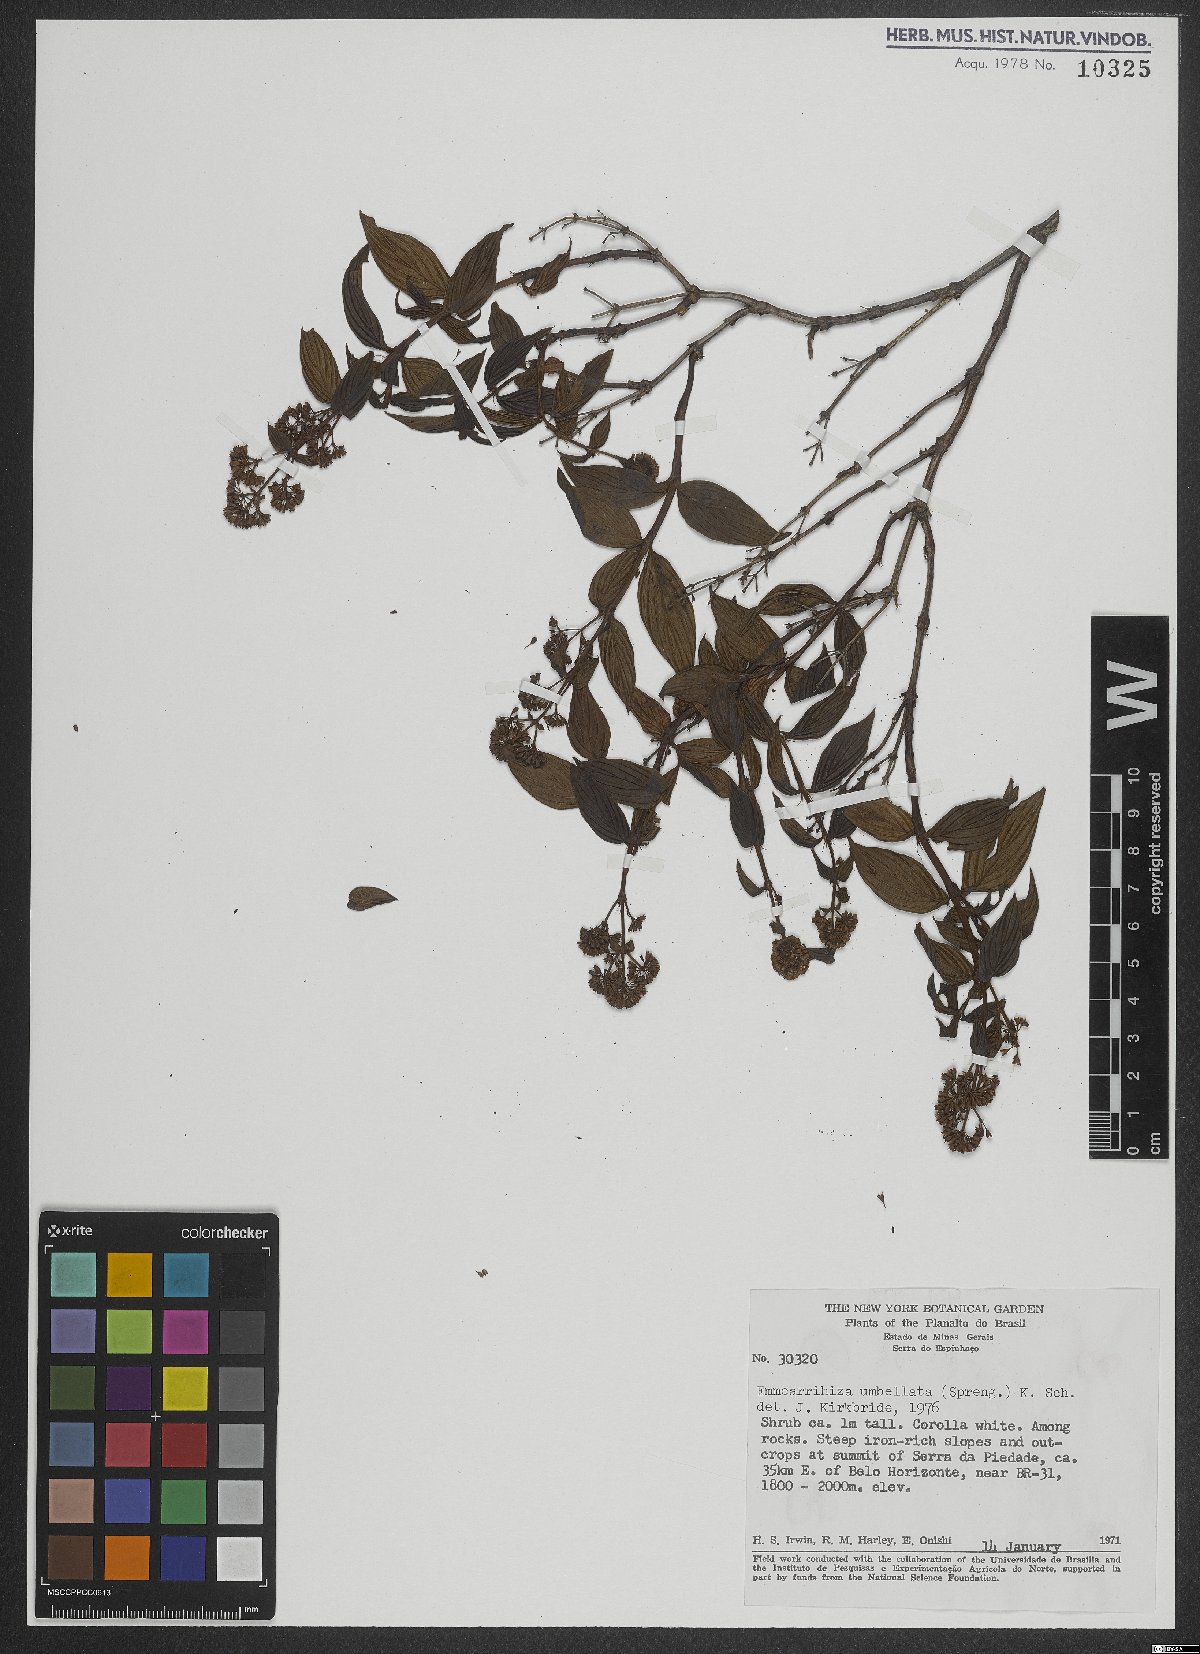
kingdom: Plantae
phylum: Tracheophyta
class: Magnoliopsida
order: Gentianales
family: Rubiaceae
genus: Emmeorhiza
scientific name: Emmeorhiza umbellata
